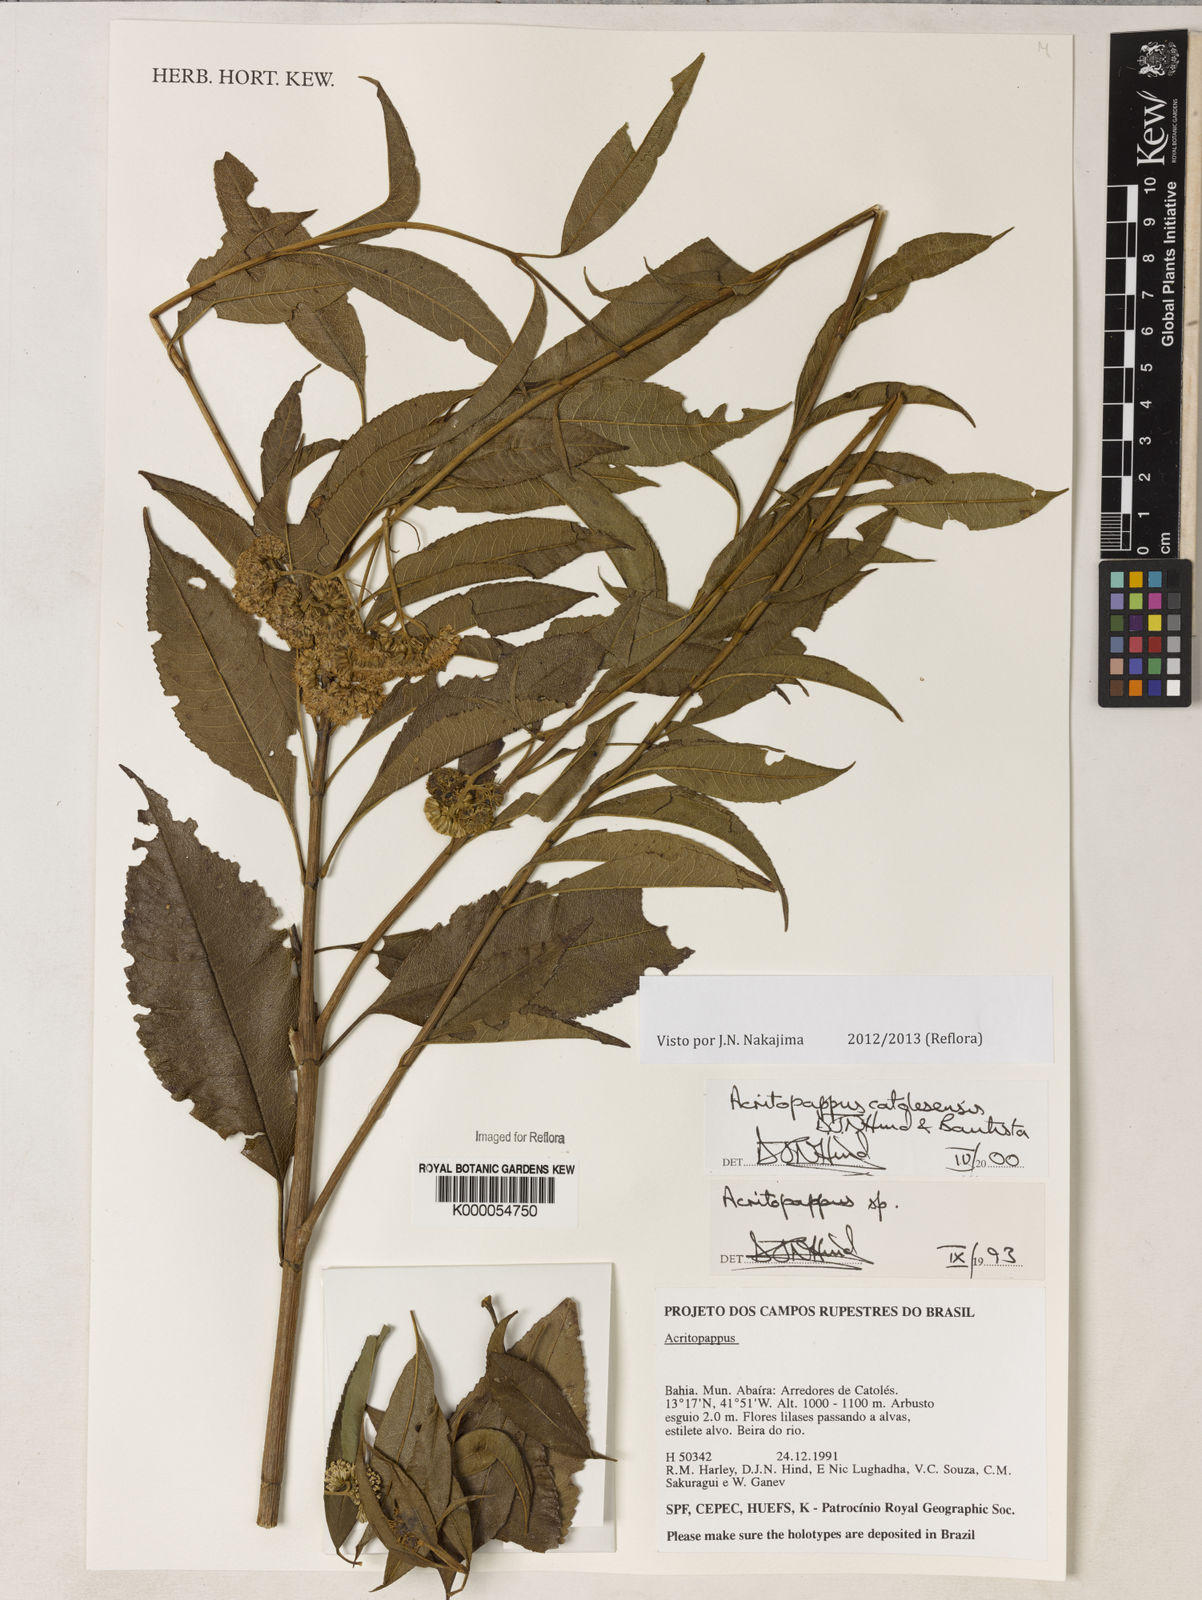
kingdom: Plantae
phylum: Tracheophyta
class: Magnoliopsida
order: Asterales
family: Asteraceae
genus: Acritopappus
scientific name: Acritopappus catolesensis
